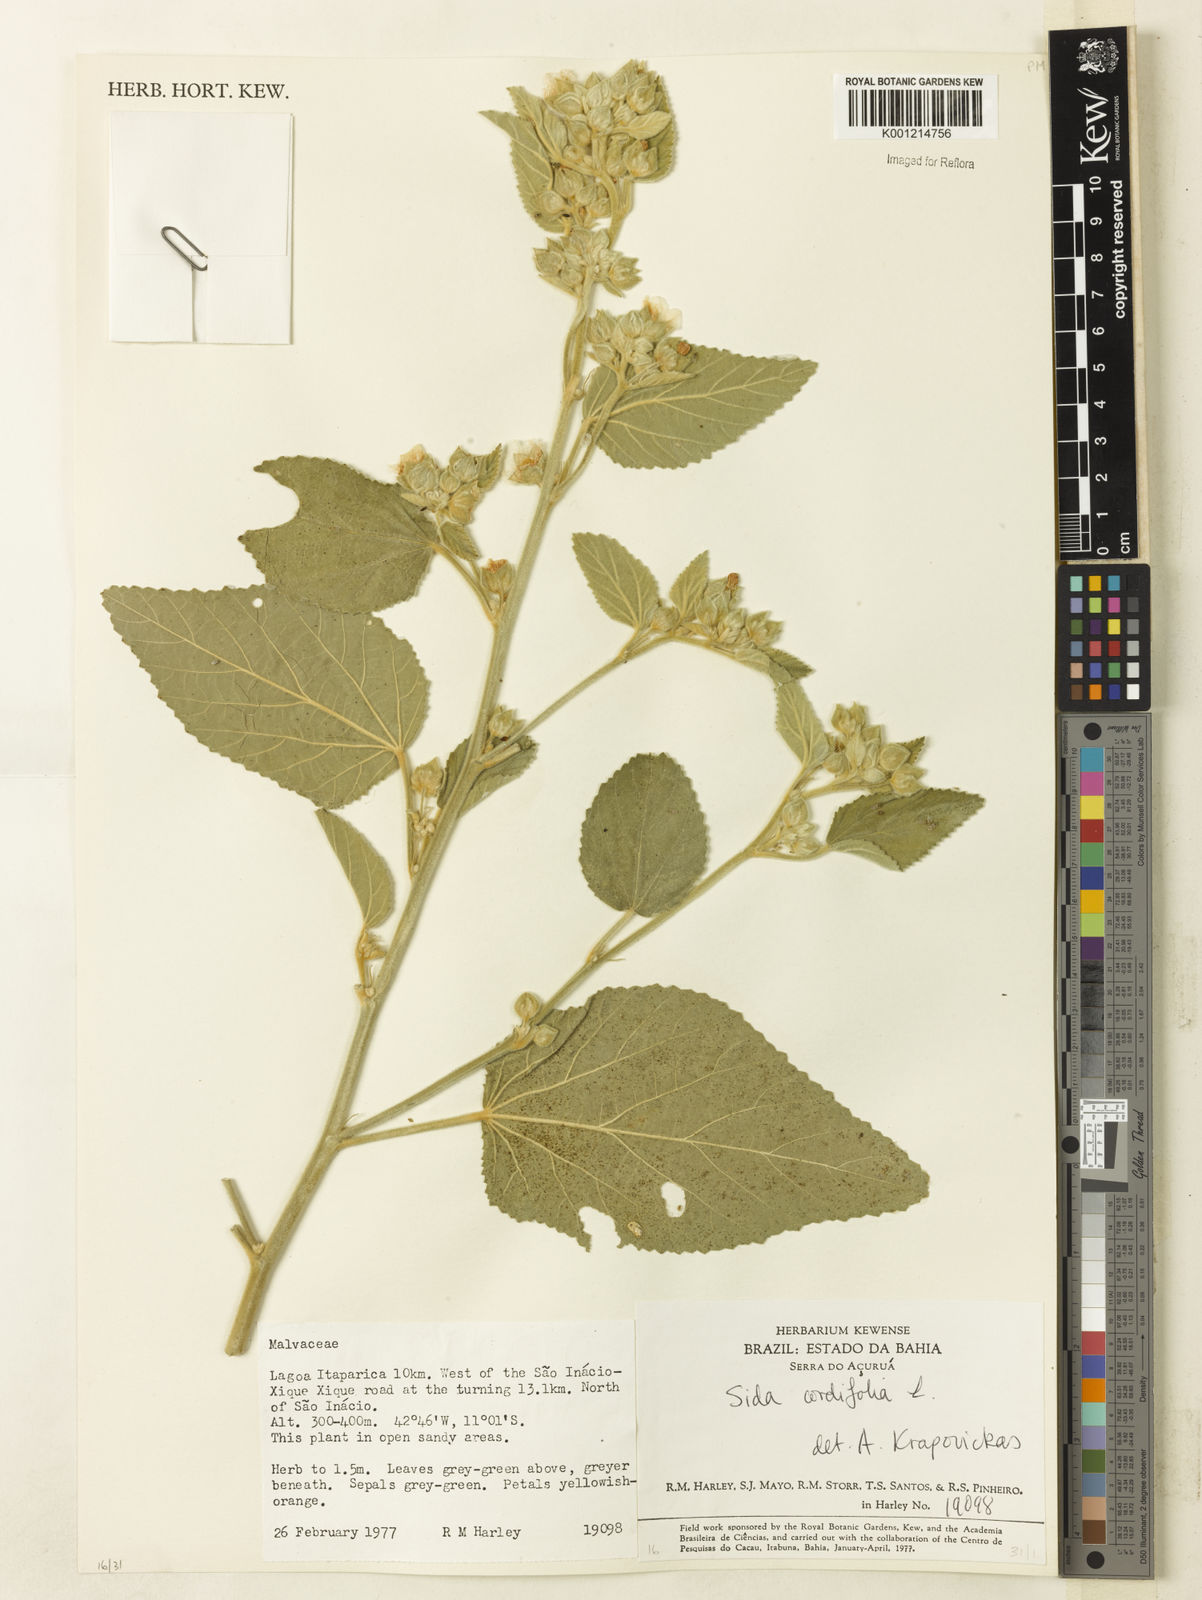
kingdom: Plantae
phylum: Tracheophyta
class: Magnoliopsida
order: Malvales
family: Malvaceae
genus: Sida
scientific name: Sida cordifolia
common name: Ilima
